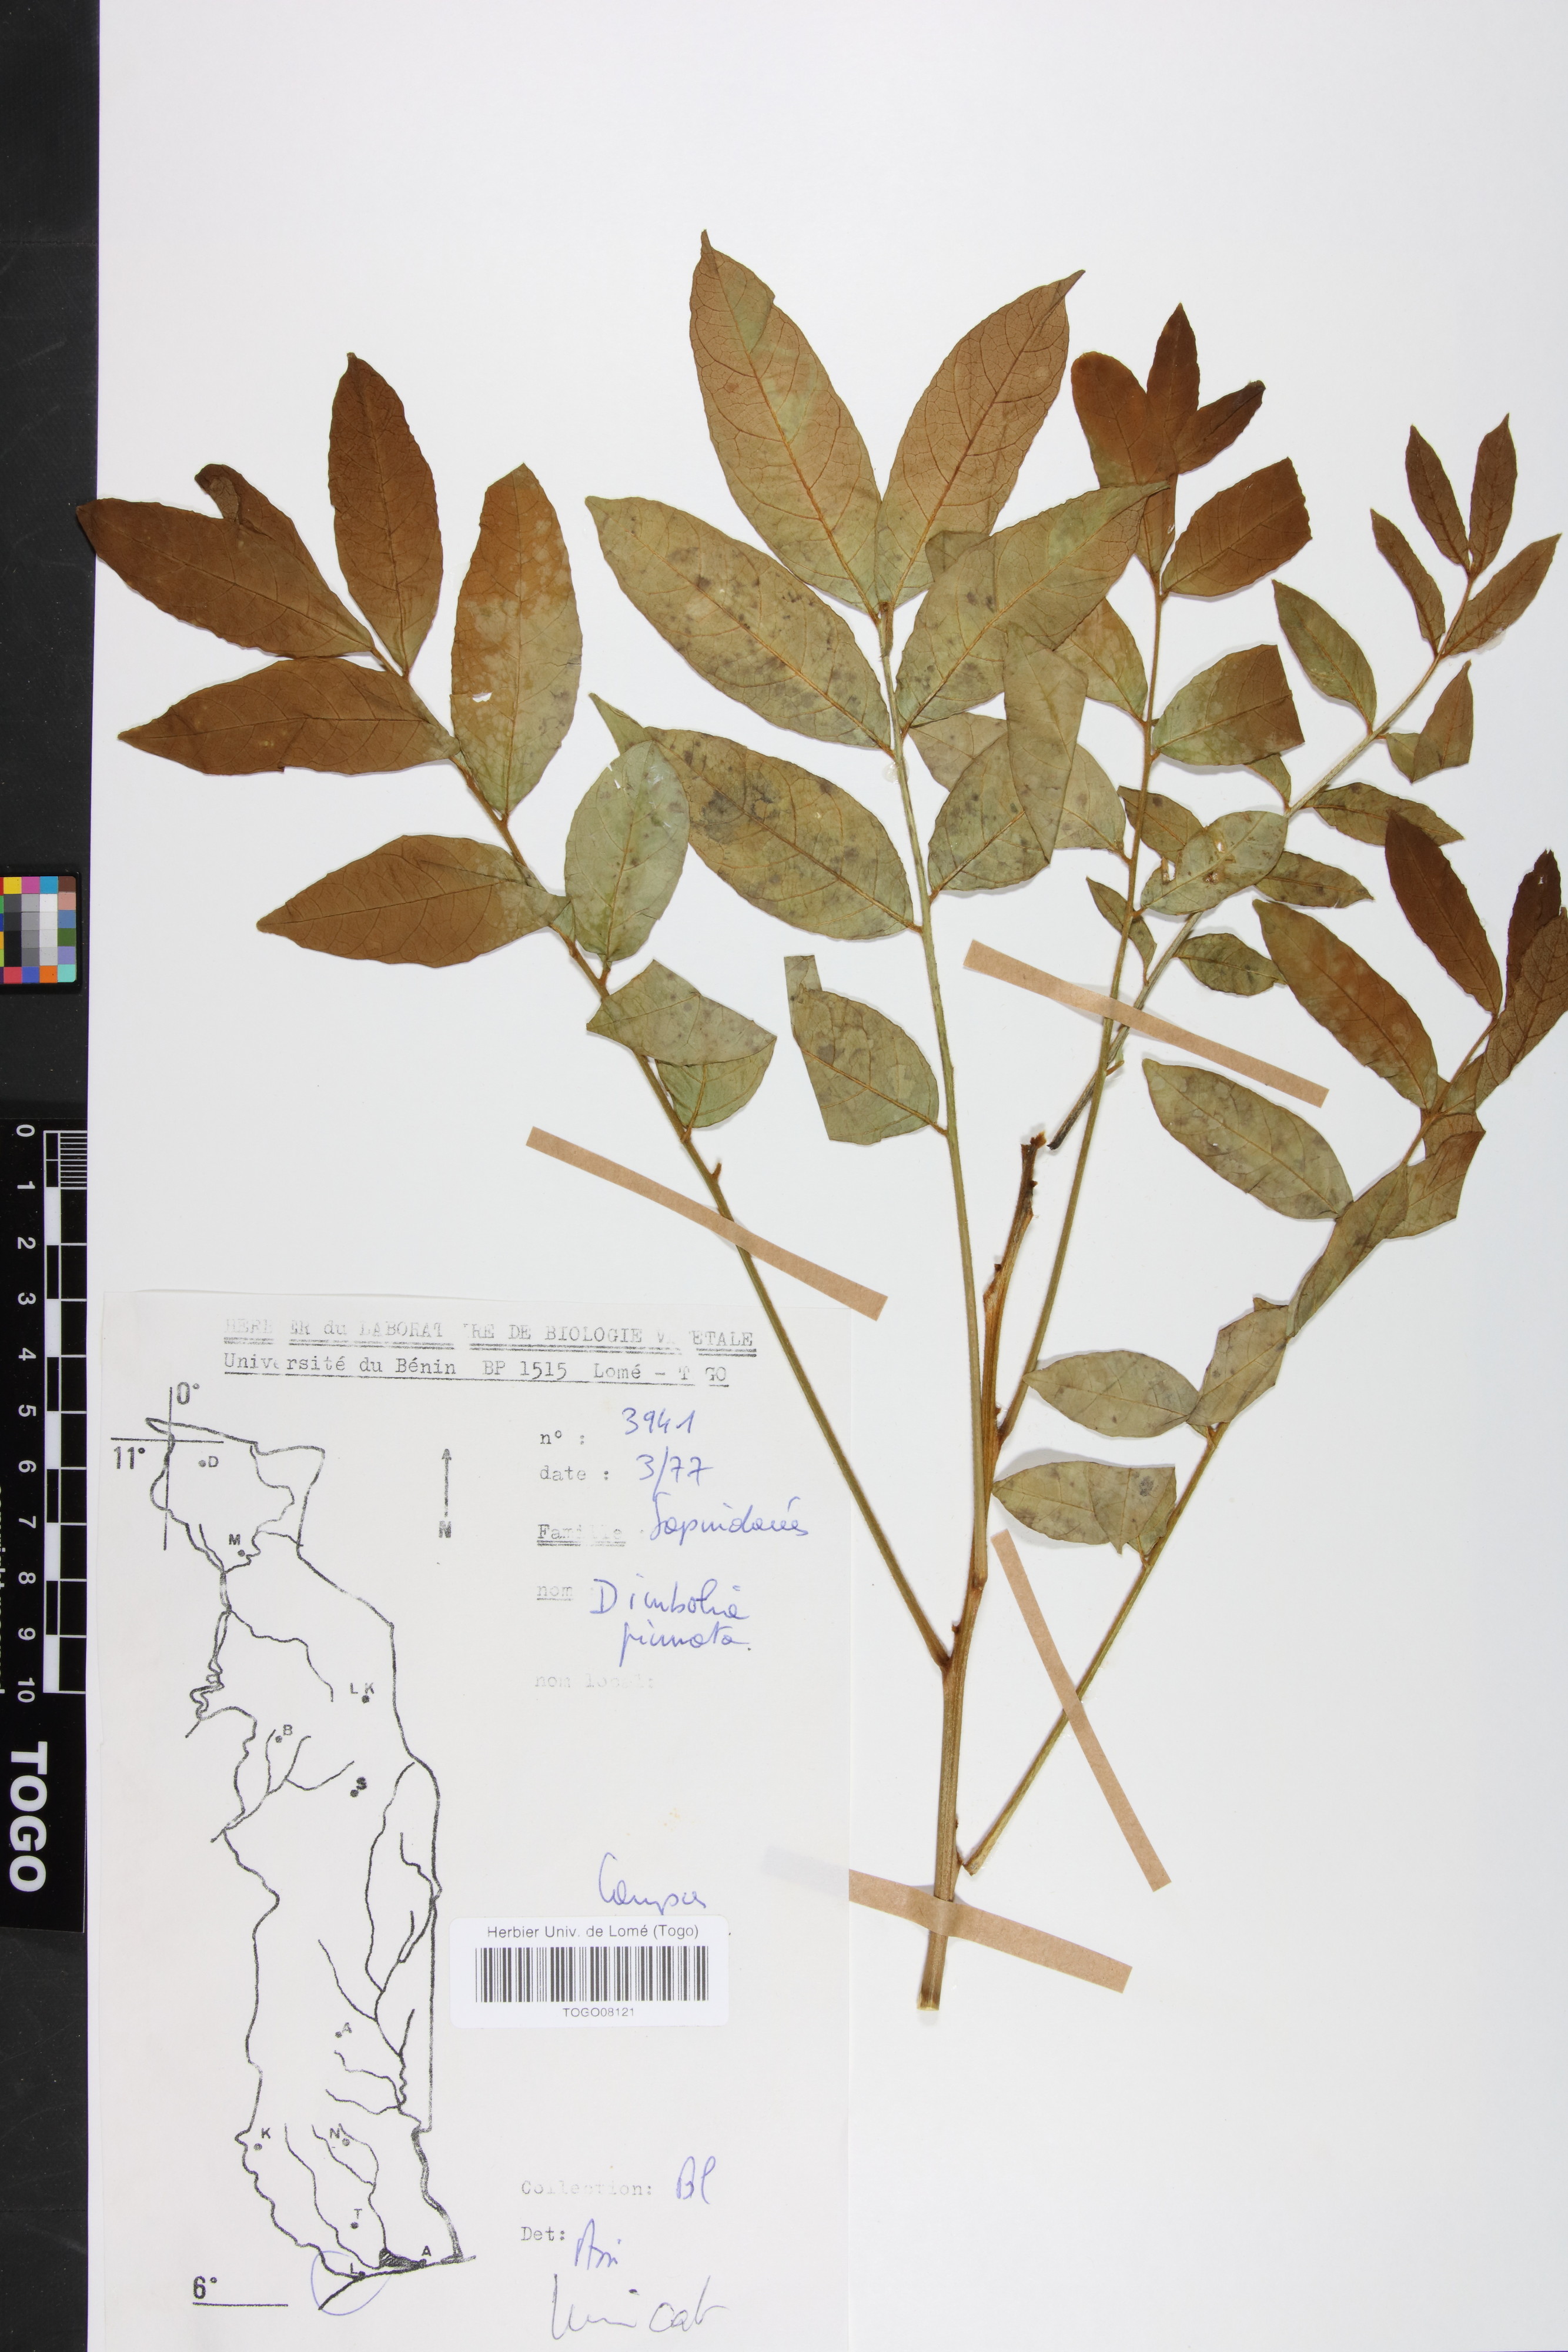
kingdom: Plantae
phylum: Tracheophyta
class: Magnoliopsida
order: Sapindales
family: Sapindaceae
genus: Deinbollia
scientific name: Deinbollia pinnata
